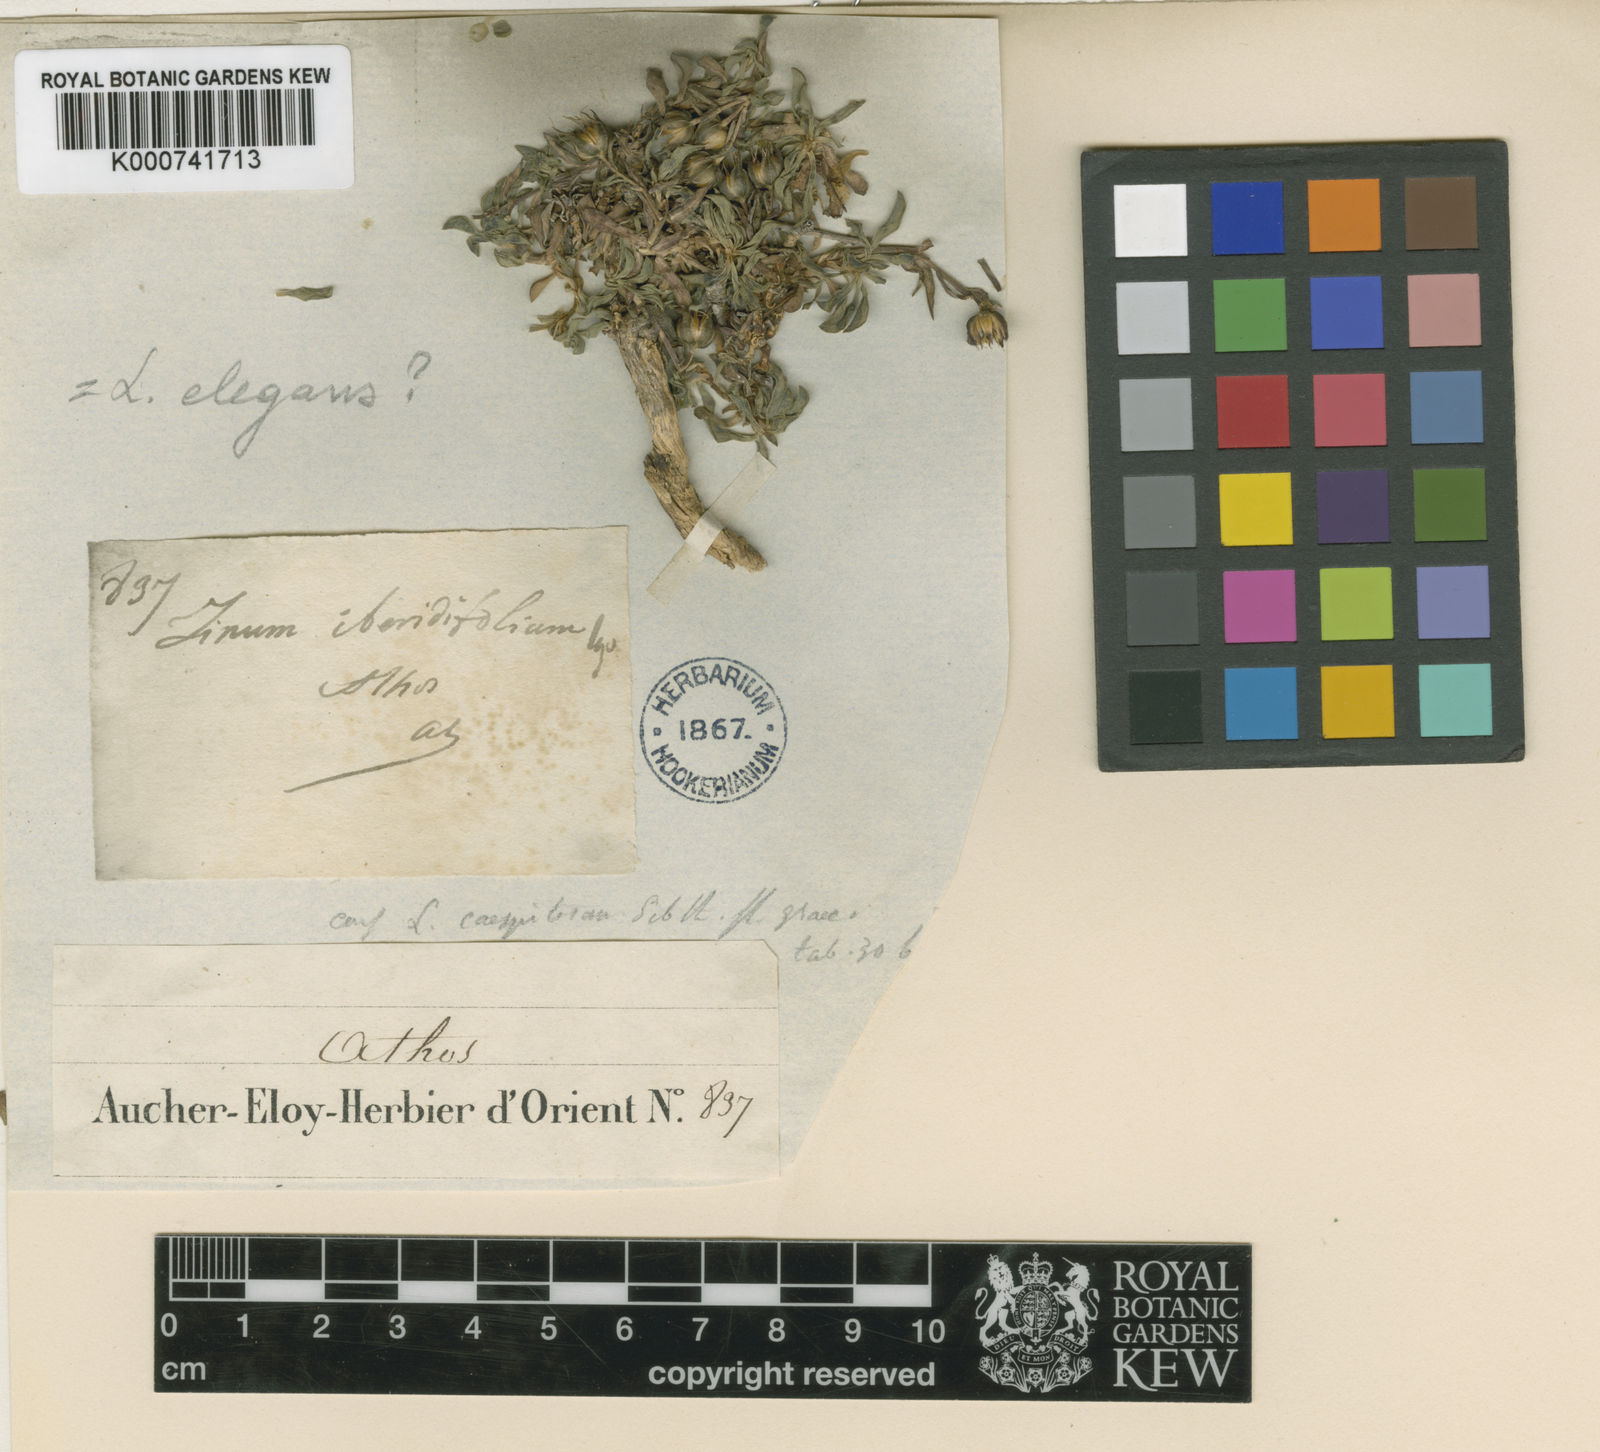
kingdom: Plantae
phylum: Tracheophyta
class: Magnoliopsida
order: Malpighiales
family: Linaceae
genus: Linum
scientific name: Linum elegans
